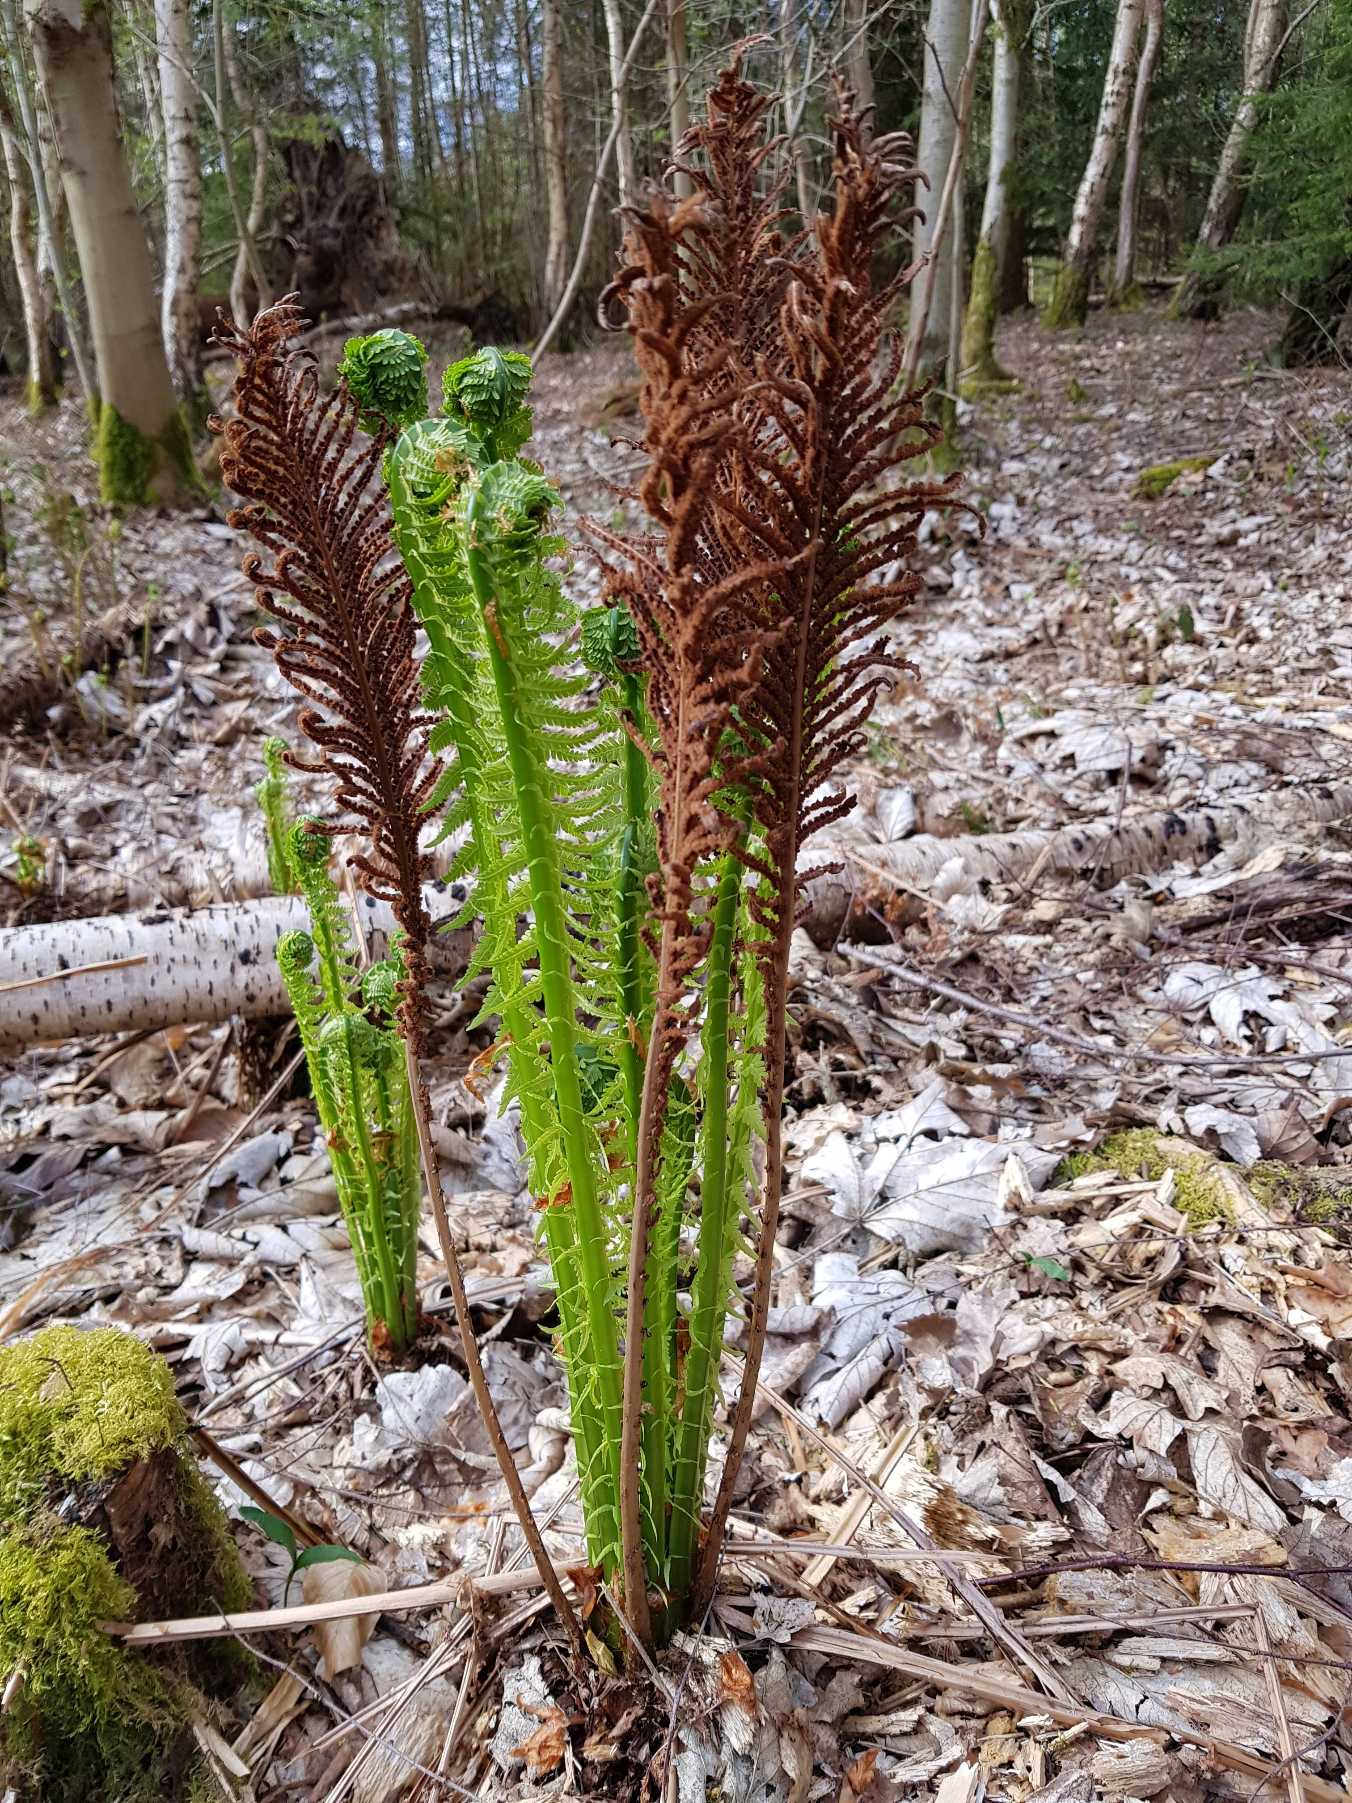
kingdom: Plantae
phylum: Tracheophyta
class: Polypodiopsida
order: Polypodiales
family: Onocleaceae
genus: Matteuccia
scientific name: Matteuccia struthiopteris
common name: Strudsvinge
